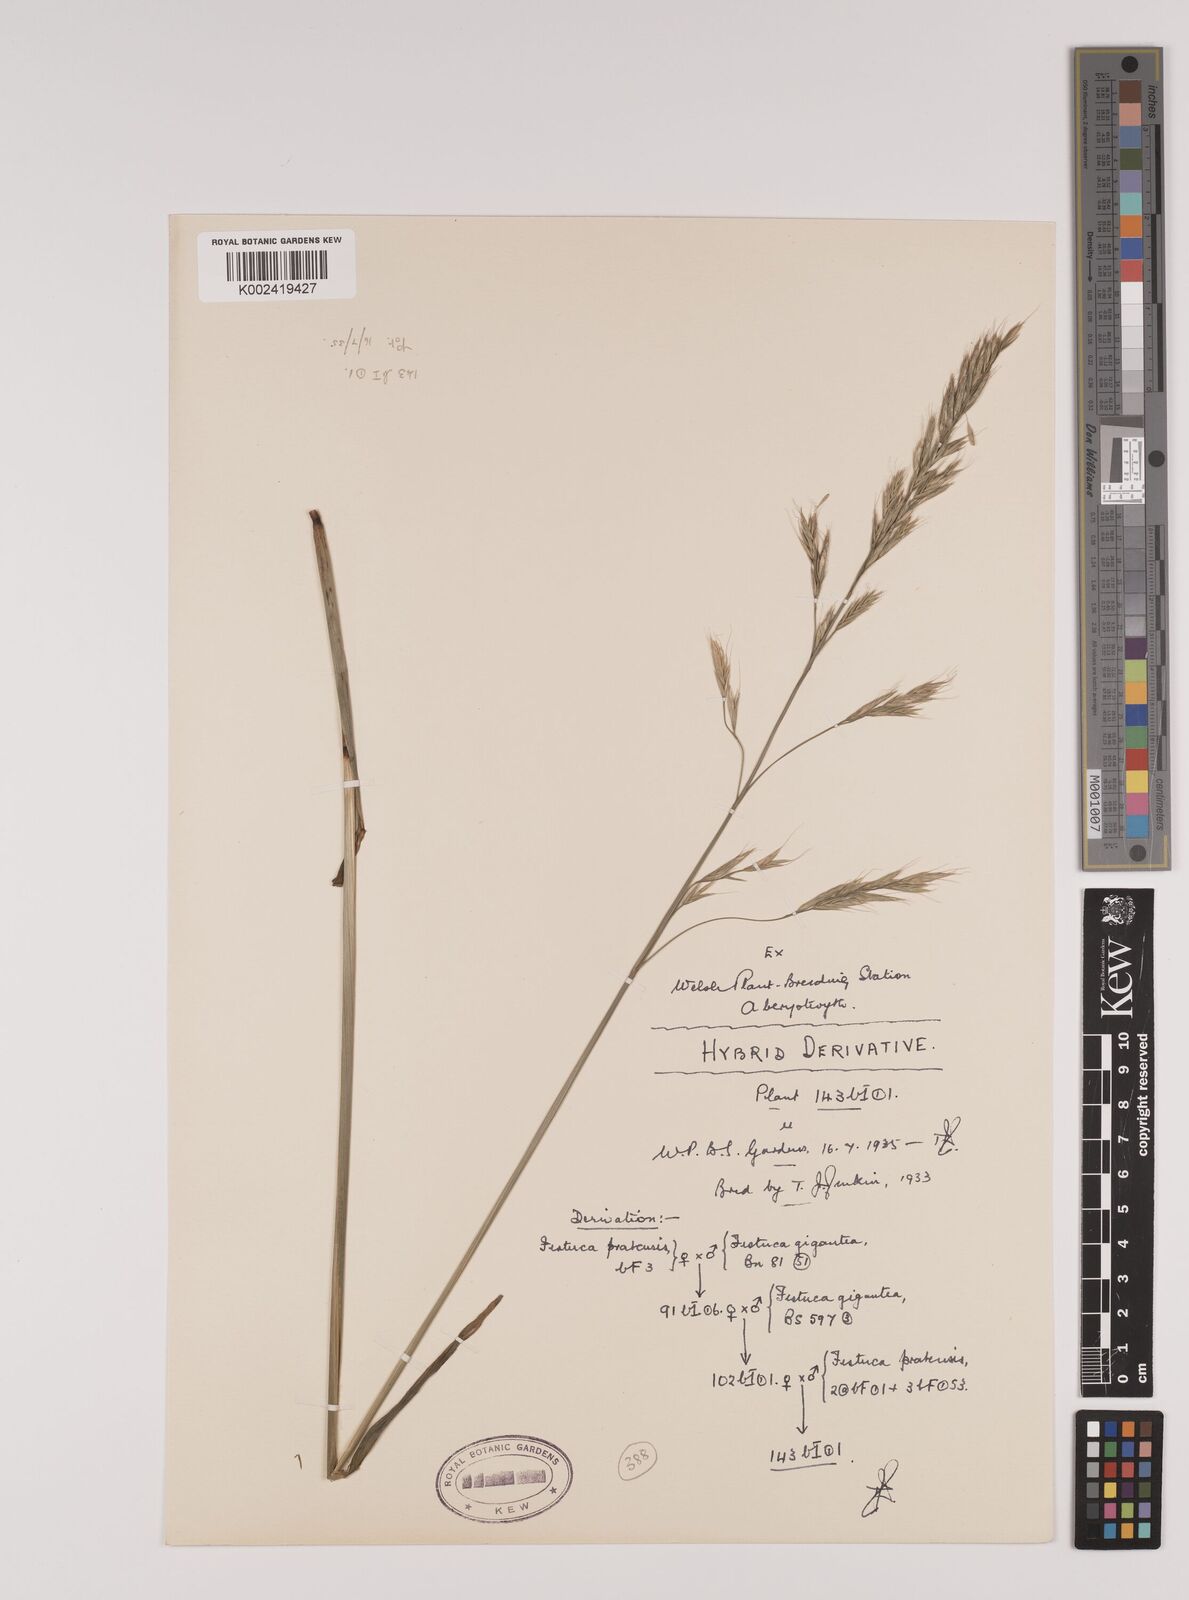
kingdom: Plantae
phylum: Tracheophyta
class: Liliopsida
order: Poales
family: Poaceae
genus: Lolium
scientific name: Lolium giganteum
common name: Giant fescue
